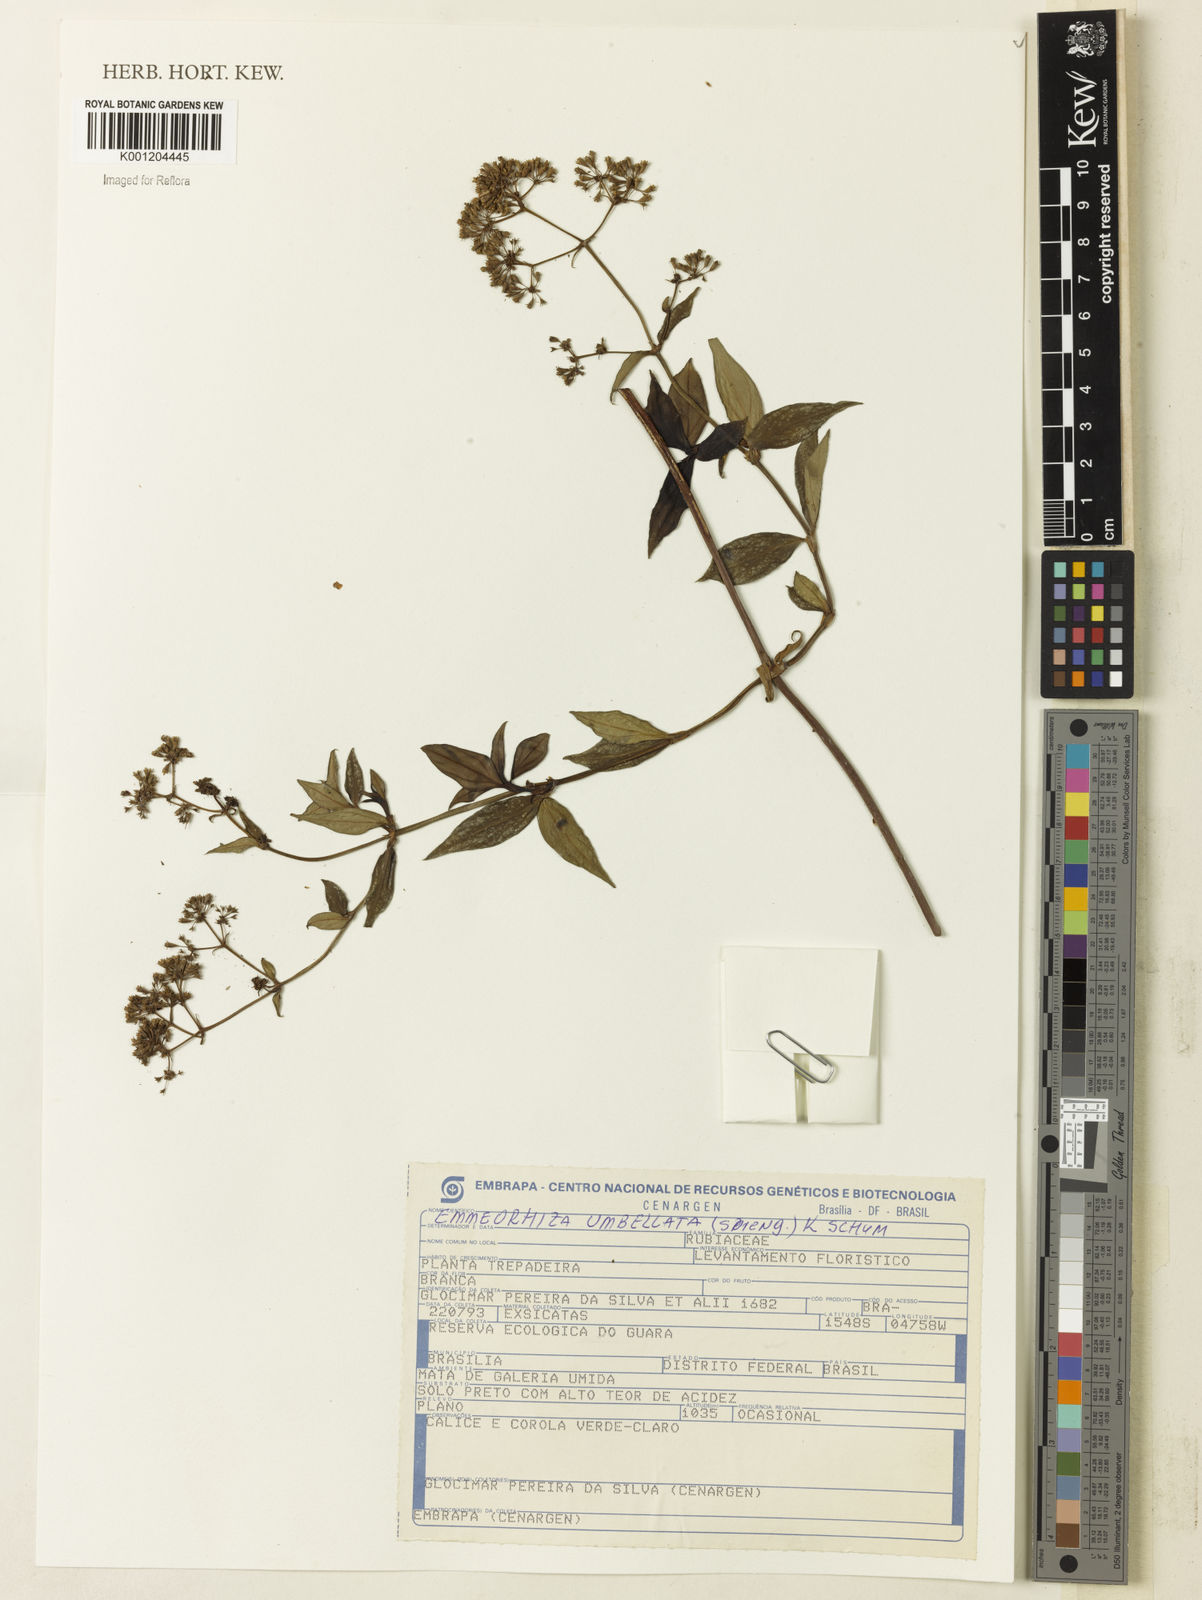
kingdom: Plantae
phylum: Tracheophyta
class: Magnoliopsida
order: Gentianales
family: Rubiaceae
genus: Emmeorhiza
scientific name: Emmeorhiza umbellata
